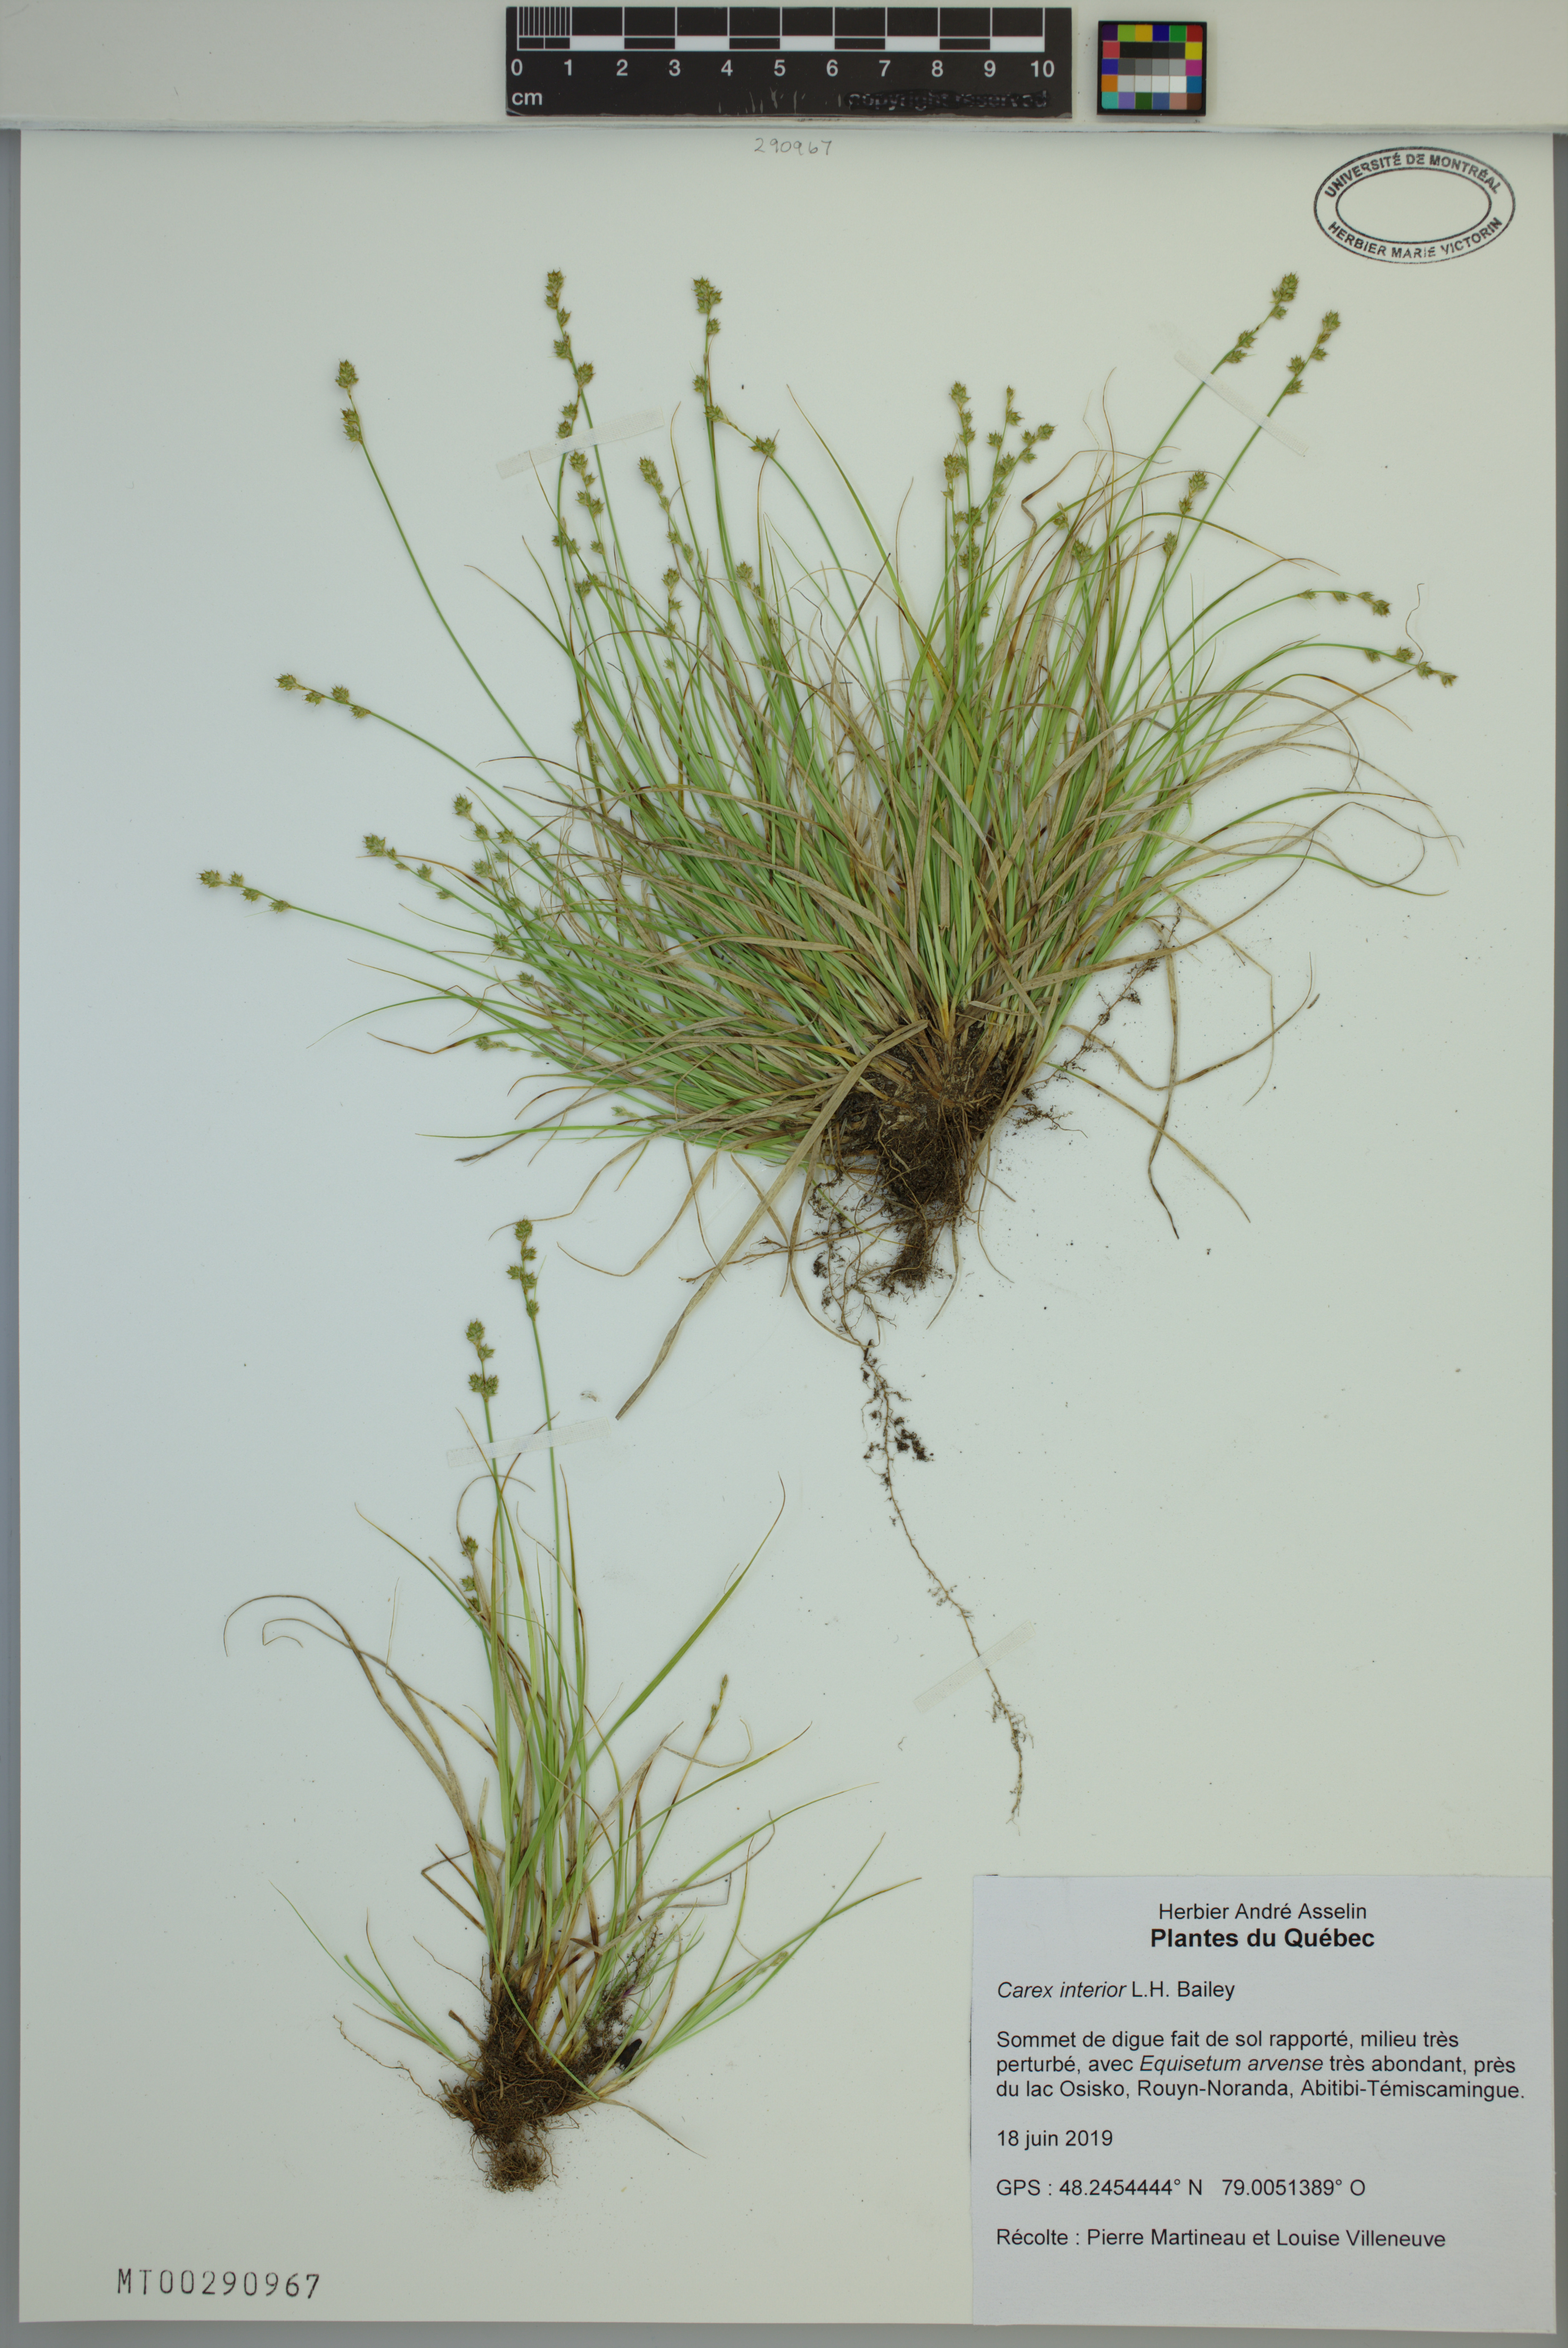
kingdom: Plantae
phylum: Tracheophyta
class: Liliopsida
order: Poales
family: Cyperaceae
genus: Carex
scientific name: Carex interior
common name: Inland sedge
